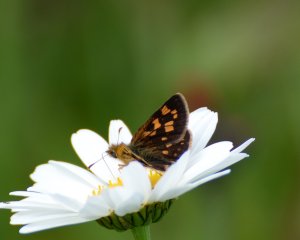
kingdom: Animalia
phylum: Arthropoda
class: Insecta
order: Lepidoptera
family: Hesperiidae
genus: Carterocephalus
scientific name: Carterocephalus palaemon
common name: Chequered Skipper
